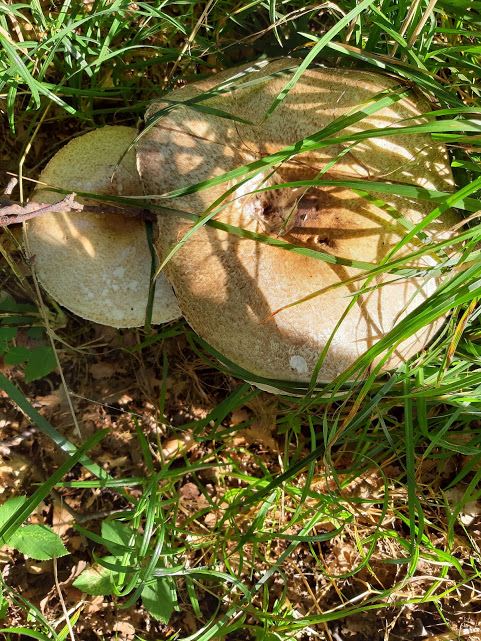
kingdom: Fungi
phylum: Basidiomycota
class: Agaricomycetes
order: Agaricales
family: Agaricaceae
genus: Agaricus
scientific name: Agaricus augustus
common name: prægtig champignon
